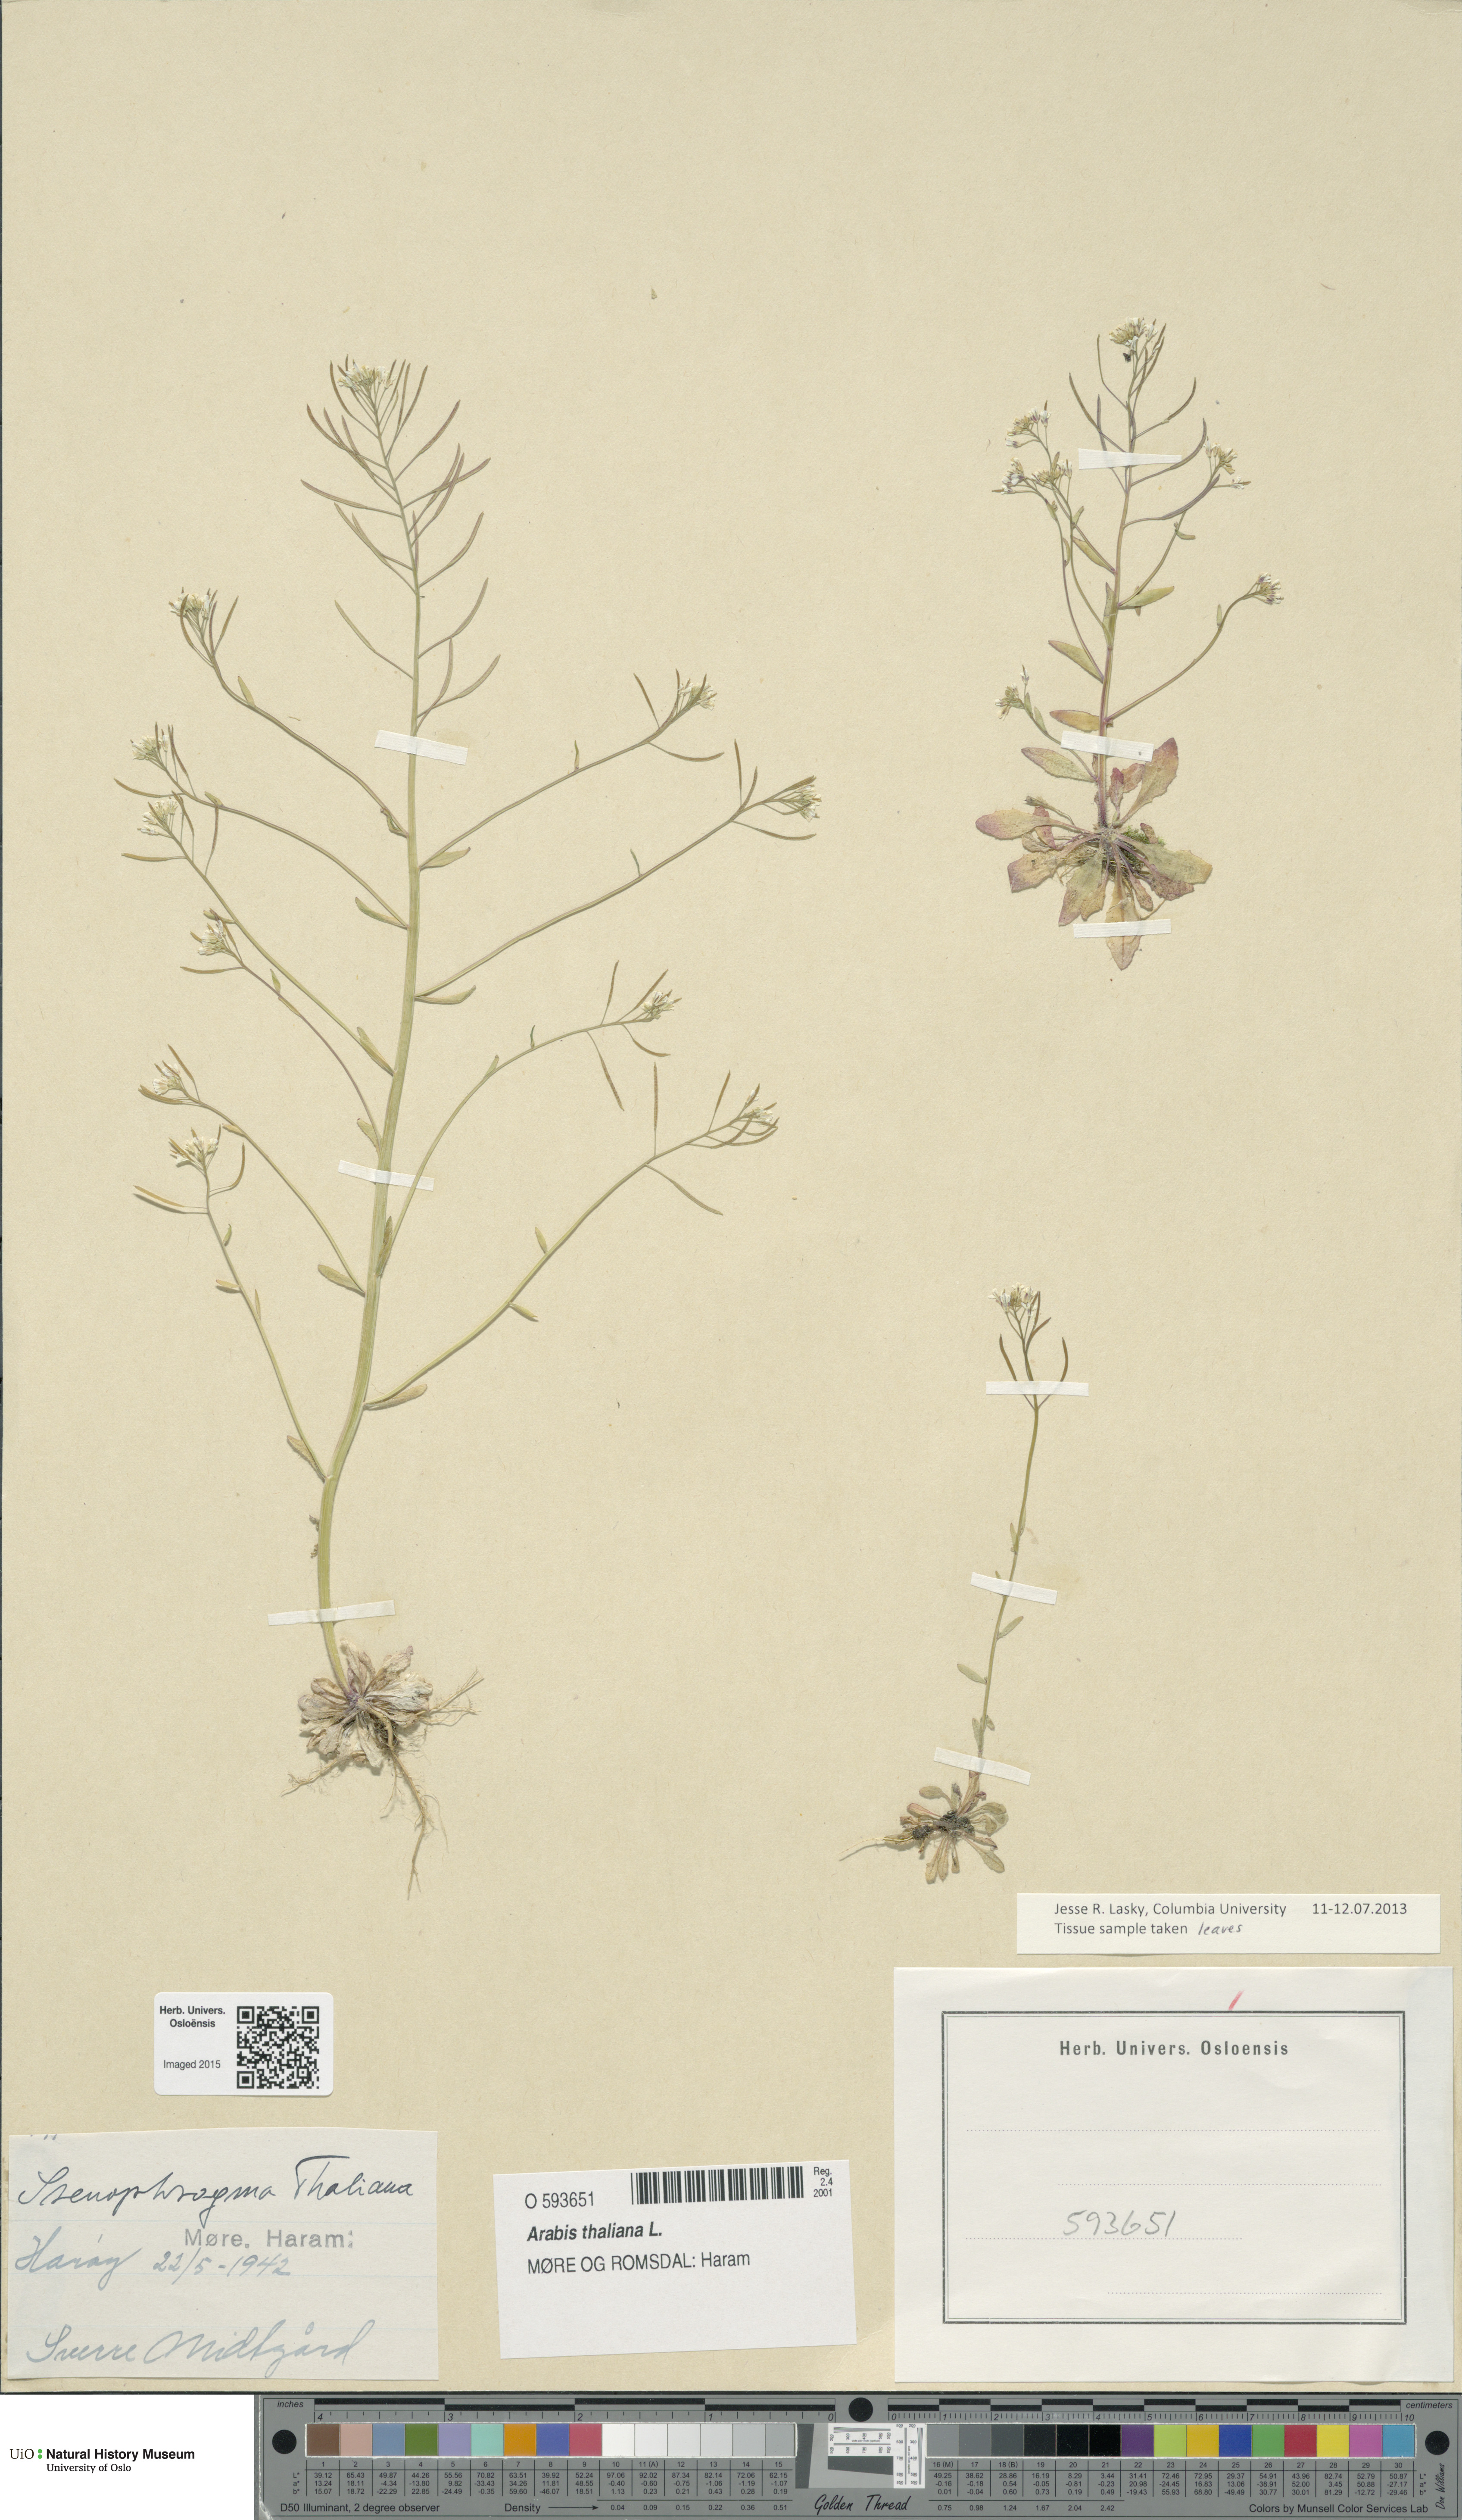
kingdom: Plantae
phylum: Tracheophyta
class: Magnoliopsida
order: Brassicales
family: Brassicaceae
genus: Arabidopsis
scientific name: Arabidopsis thaliana
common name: Thale cress
